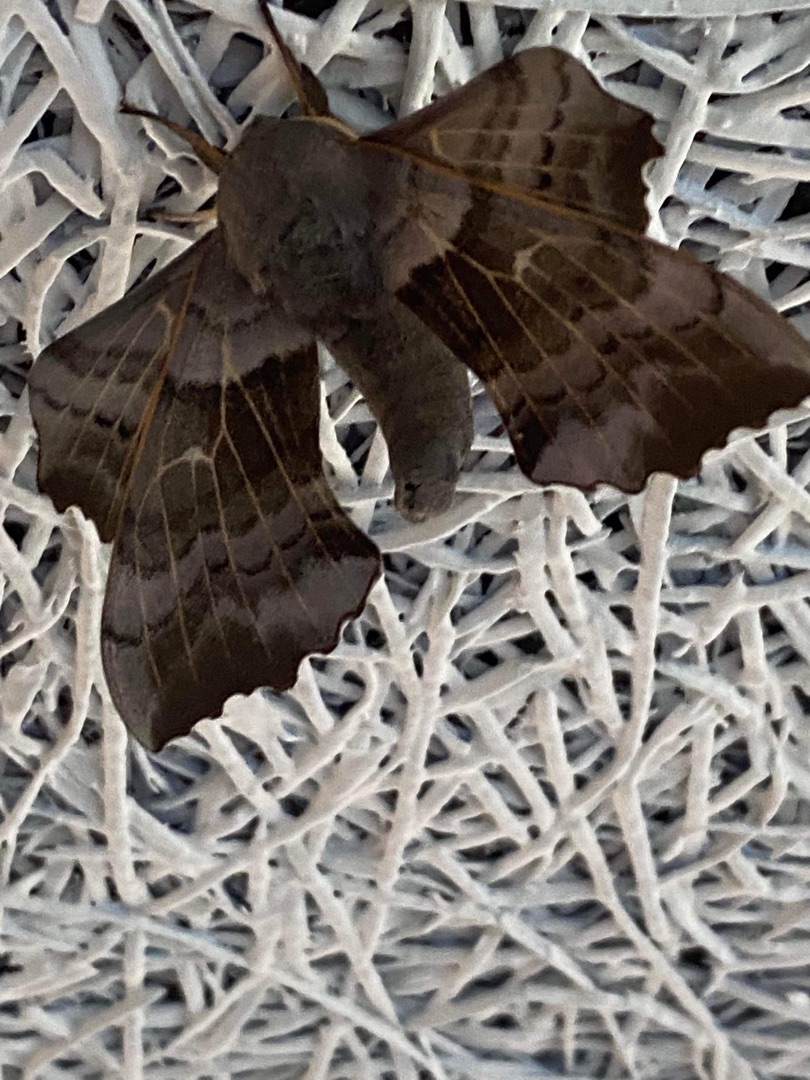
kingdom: Animalia
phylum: Arthropoda
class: Insecta
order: Lepidoptera
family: Sphingidae
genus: Laothoe
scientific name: Laothoe populi
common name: Poppelsværmer
